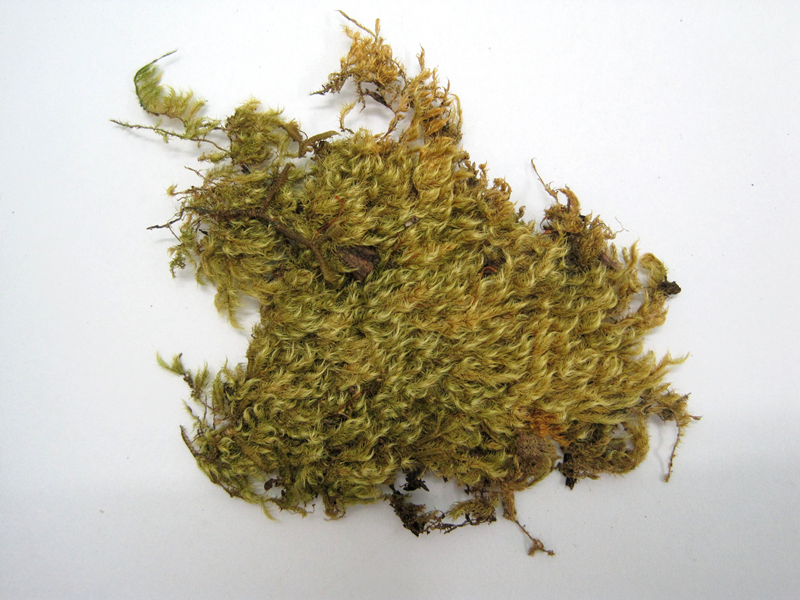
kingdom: Plantae
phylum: Bryophyta
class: Bryopsida
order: Hypnales
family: Sematophyllaceae
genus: Radulina
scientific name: Radulina borbonica
